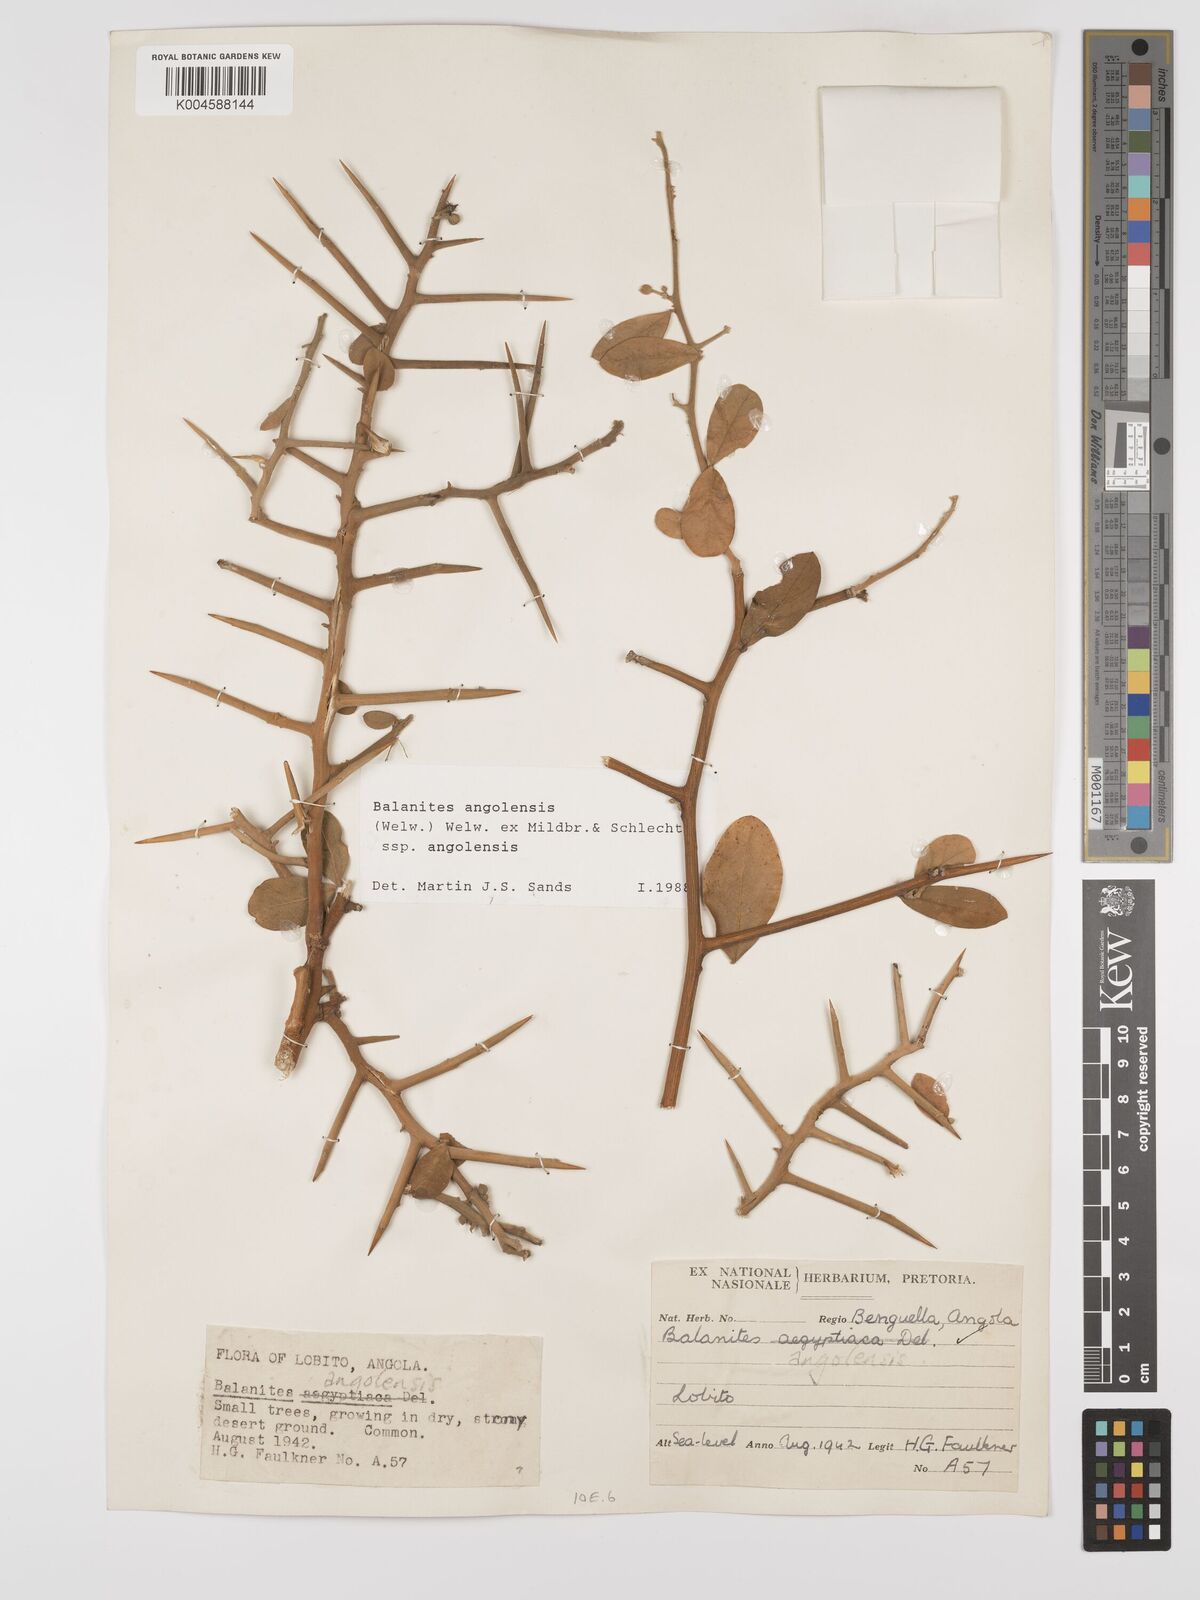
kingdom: Plantae
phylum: Tracheophyta
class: Magnoliopsida
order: Zygophyllales
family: Zygophyllaceae
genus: Balanites
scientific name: Balanites angolensis
